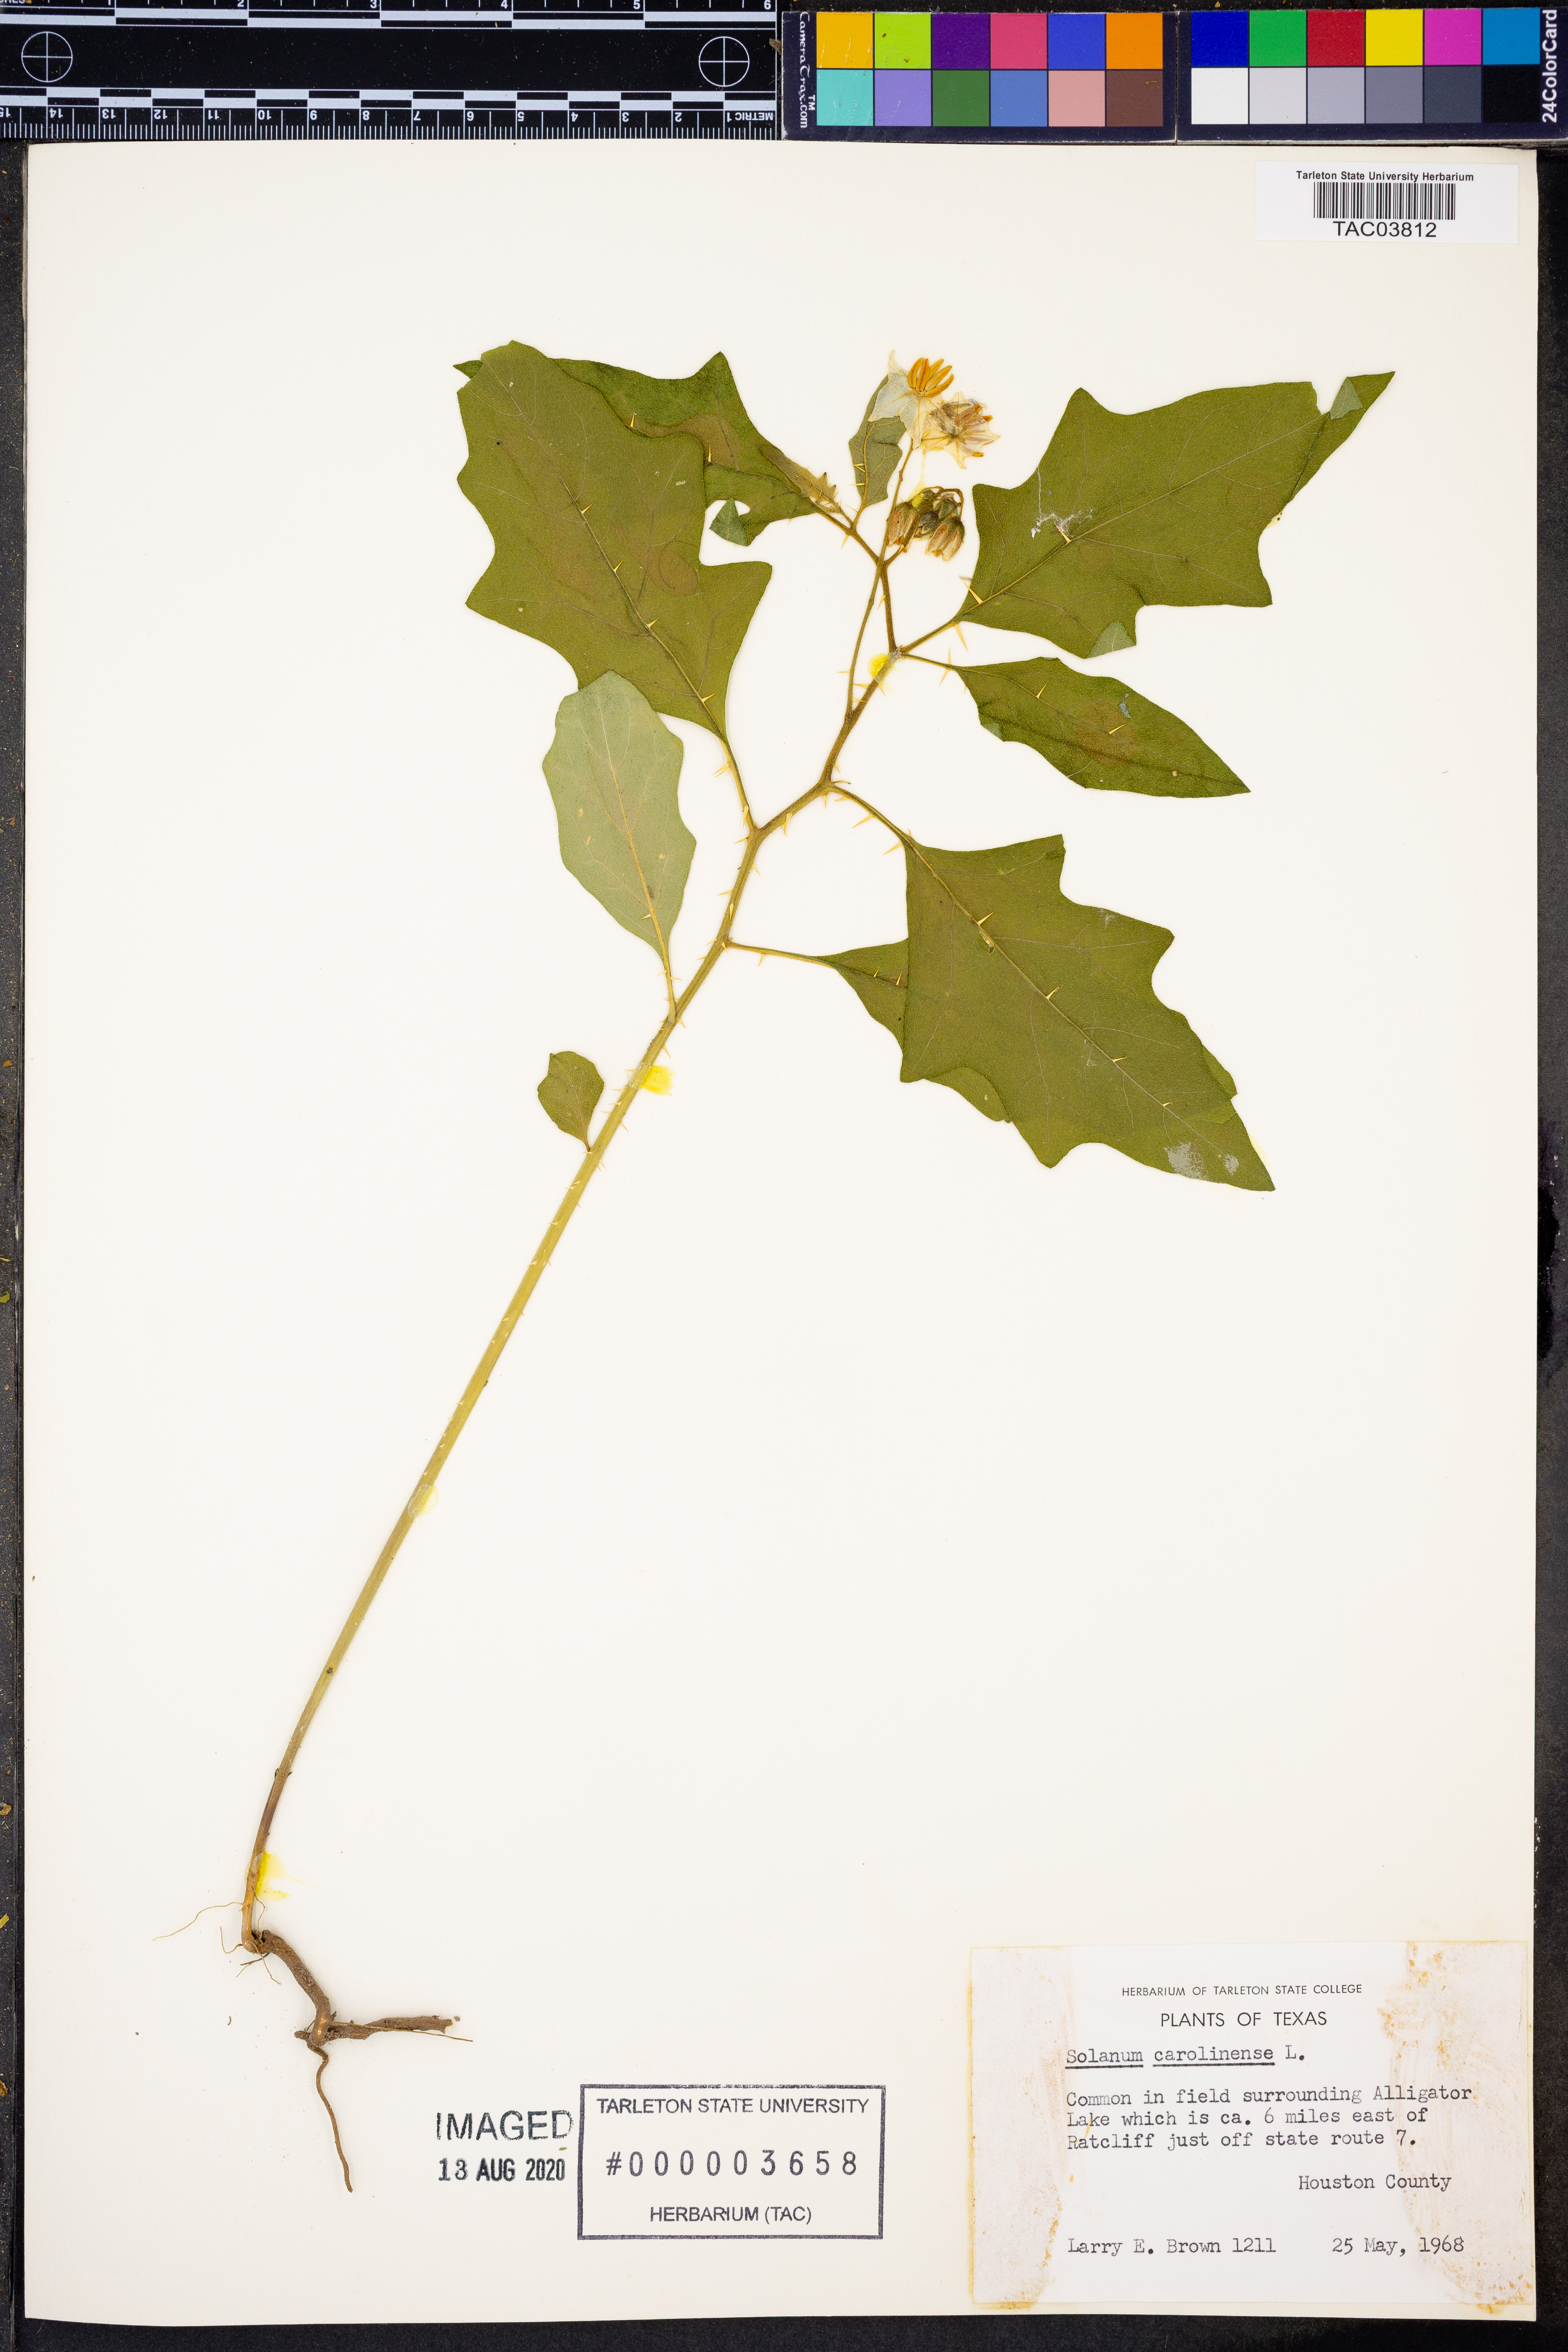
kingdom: Plantae
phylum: Tracheophyta
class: Magnoliopsida
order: Solanales
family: Solanaceae
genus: Solanum
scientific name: Solanum carolinense
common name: Horse-nettle
